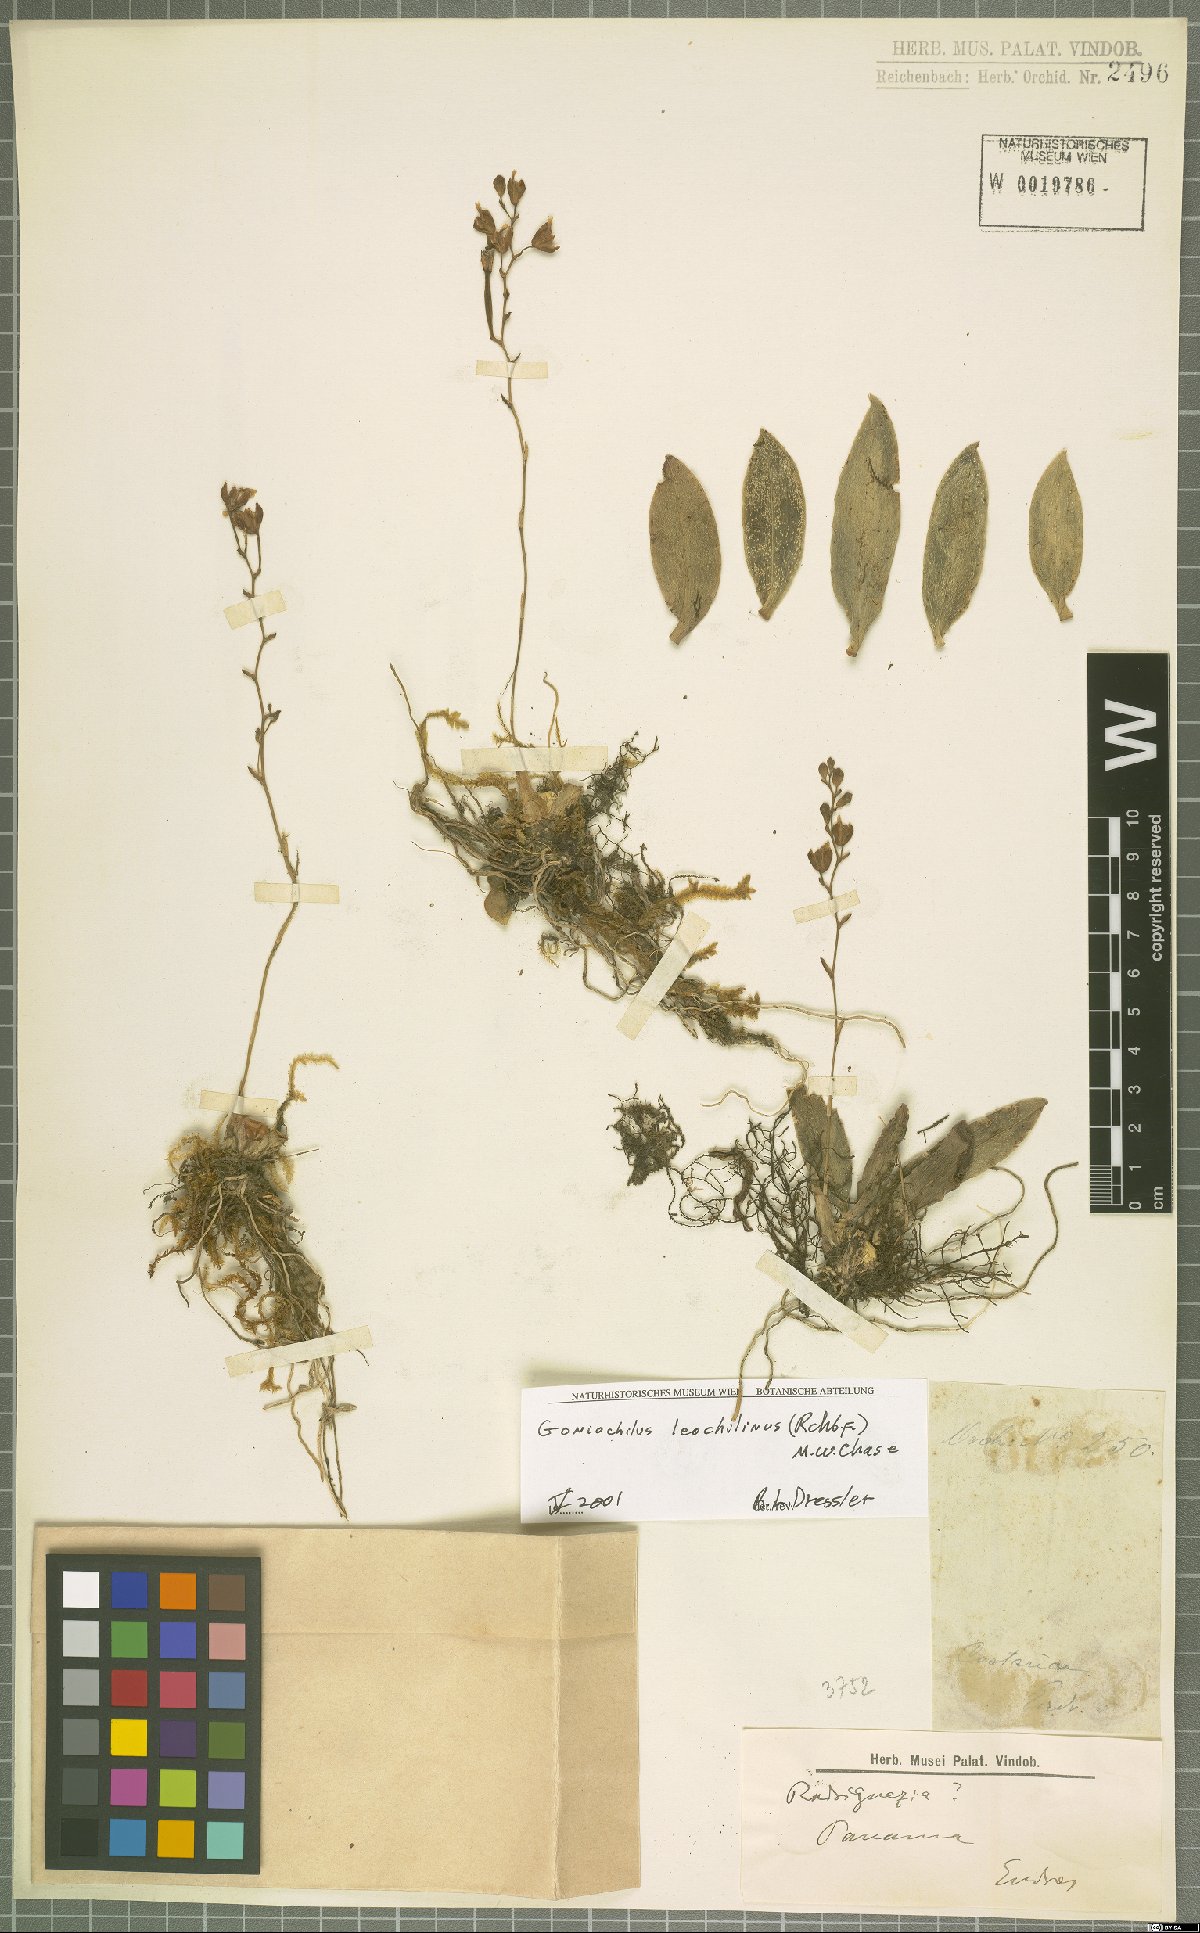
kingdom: Plantae
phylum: Tracheophyta
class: Liliopsida
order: Asparagales
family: Orchidaceae
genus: Leochilus
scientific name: Leochilus leochilinus
